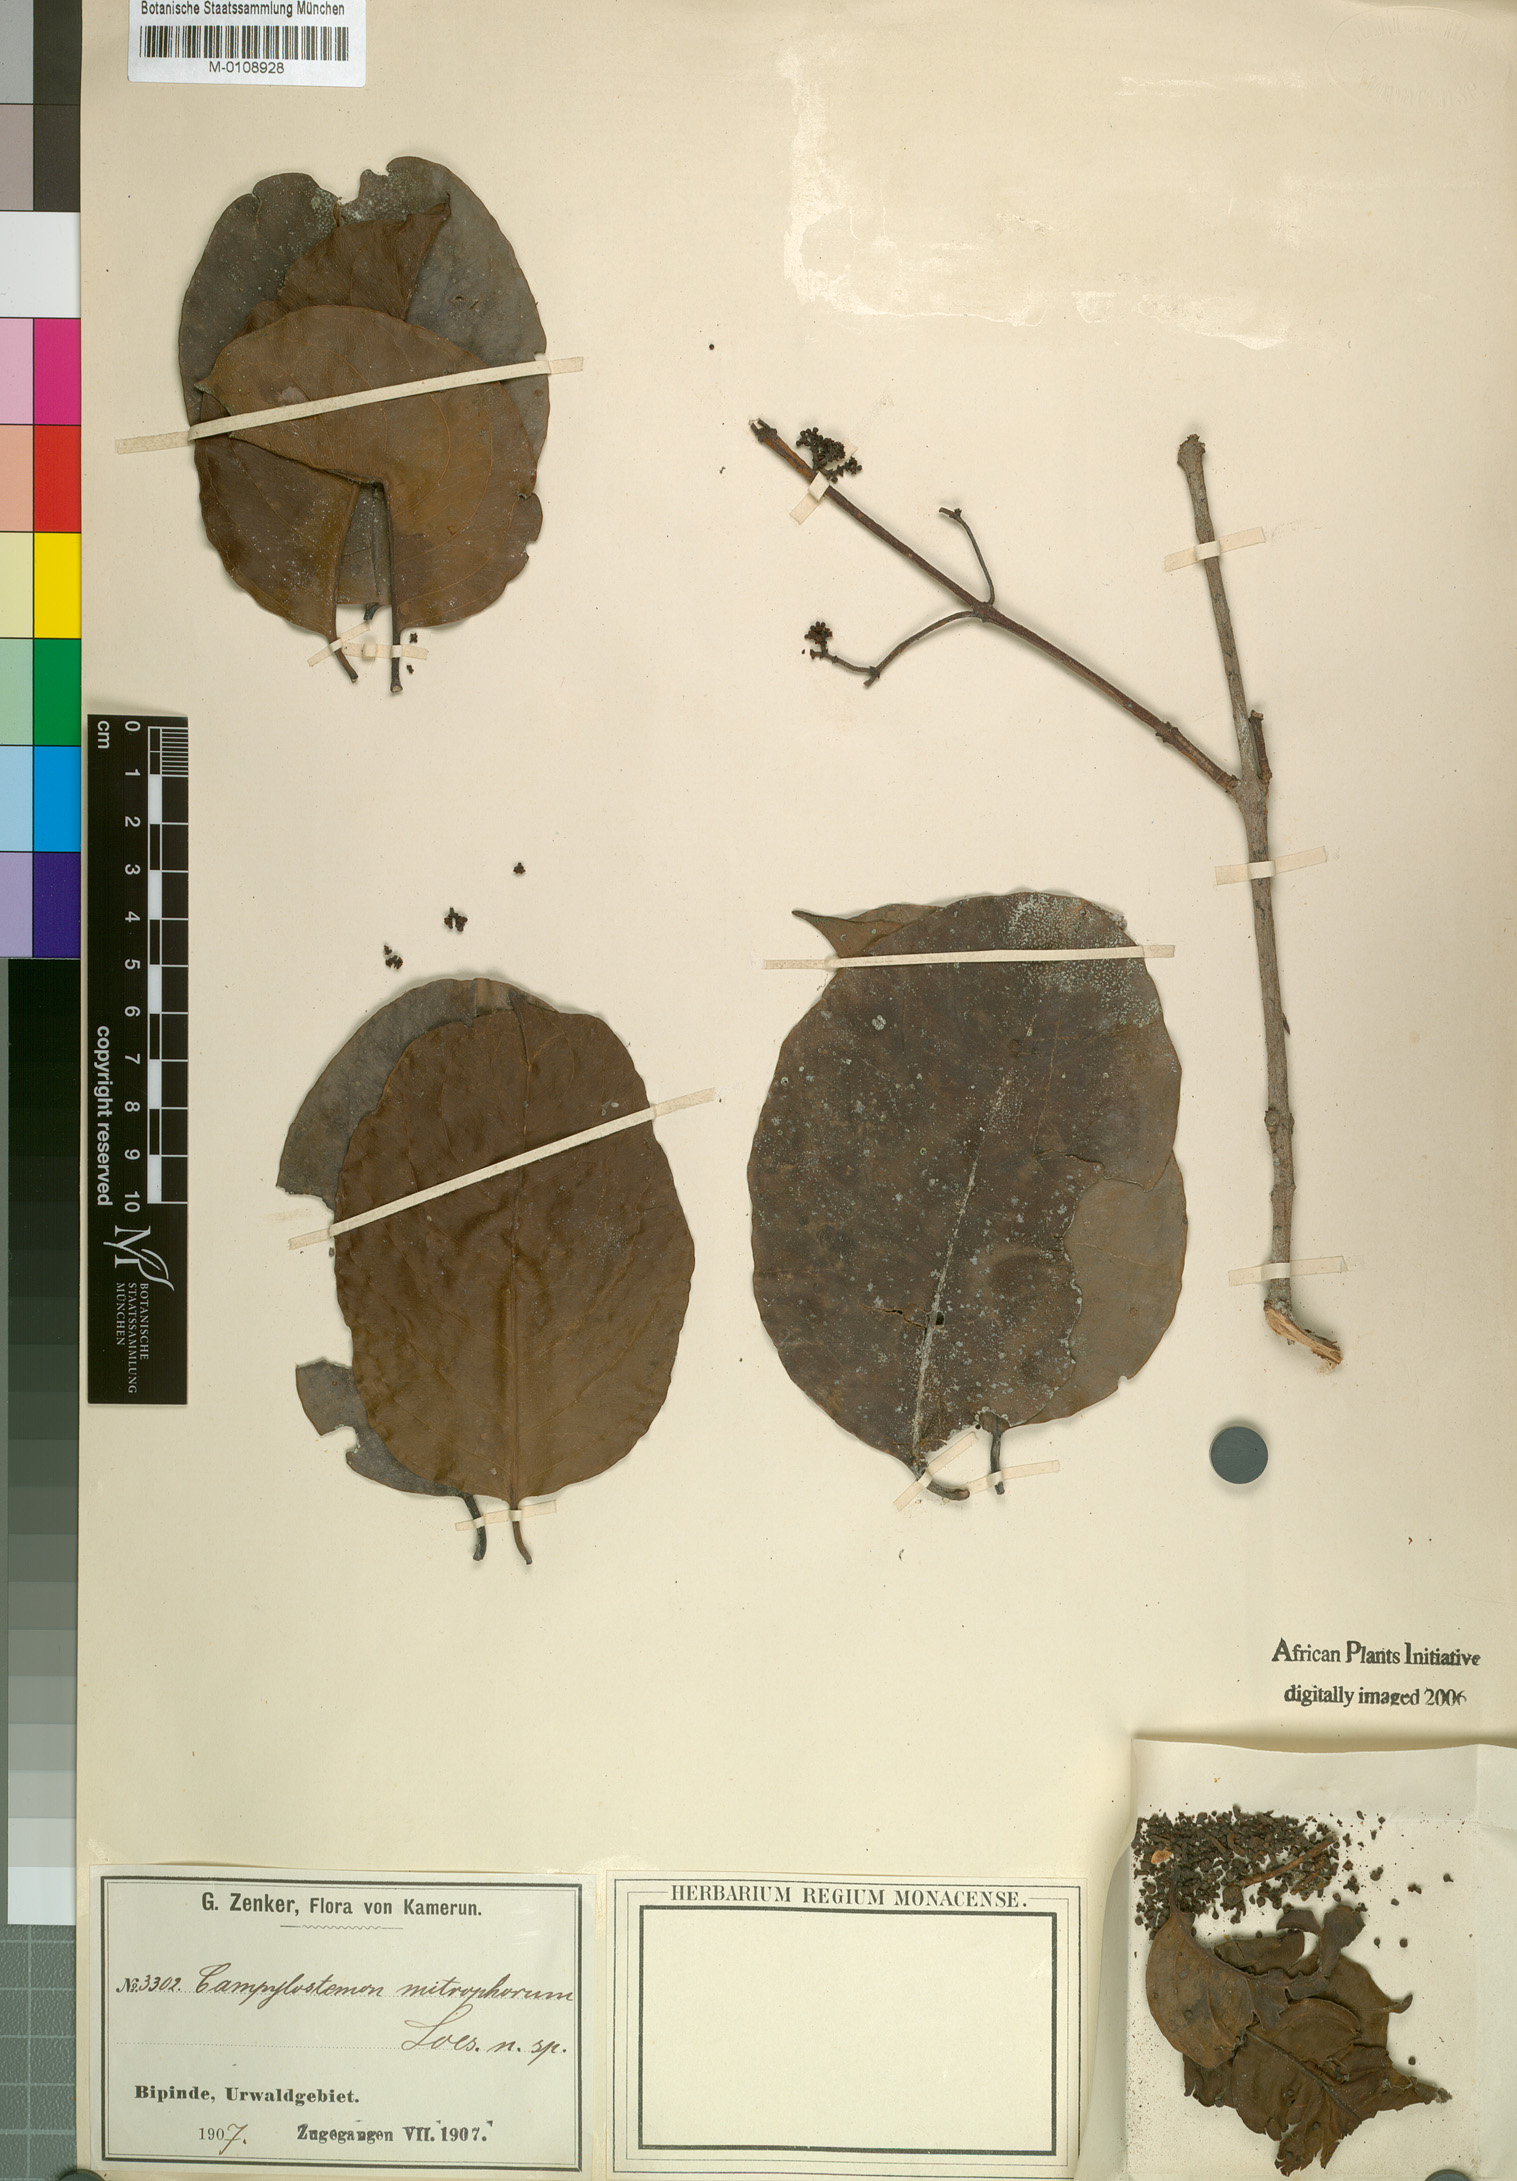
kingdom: Plantae
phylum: Tracheophyta
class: Magnoliopsida
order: Celastrales
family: Celastraceae
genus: Campylostemon
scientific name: Campylostemon mitophorum
